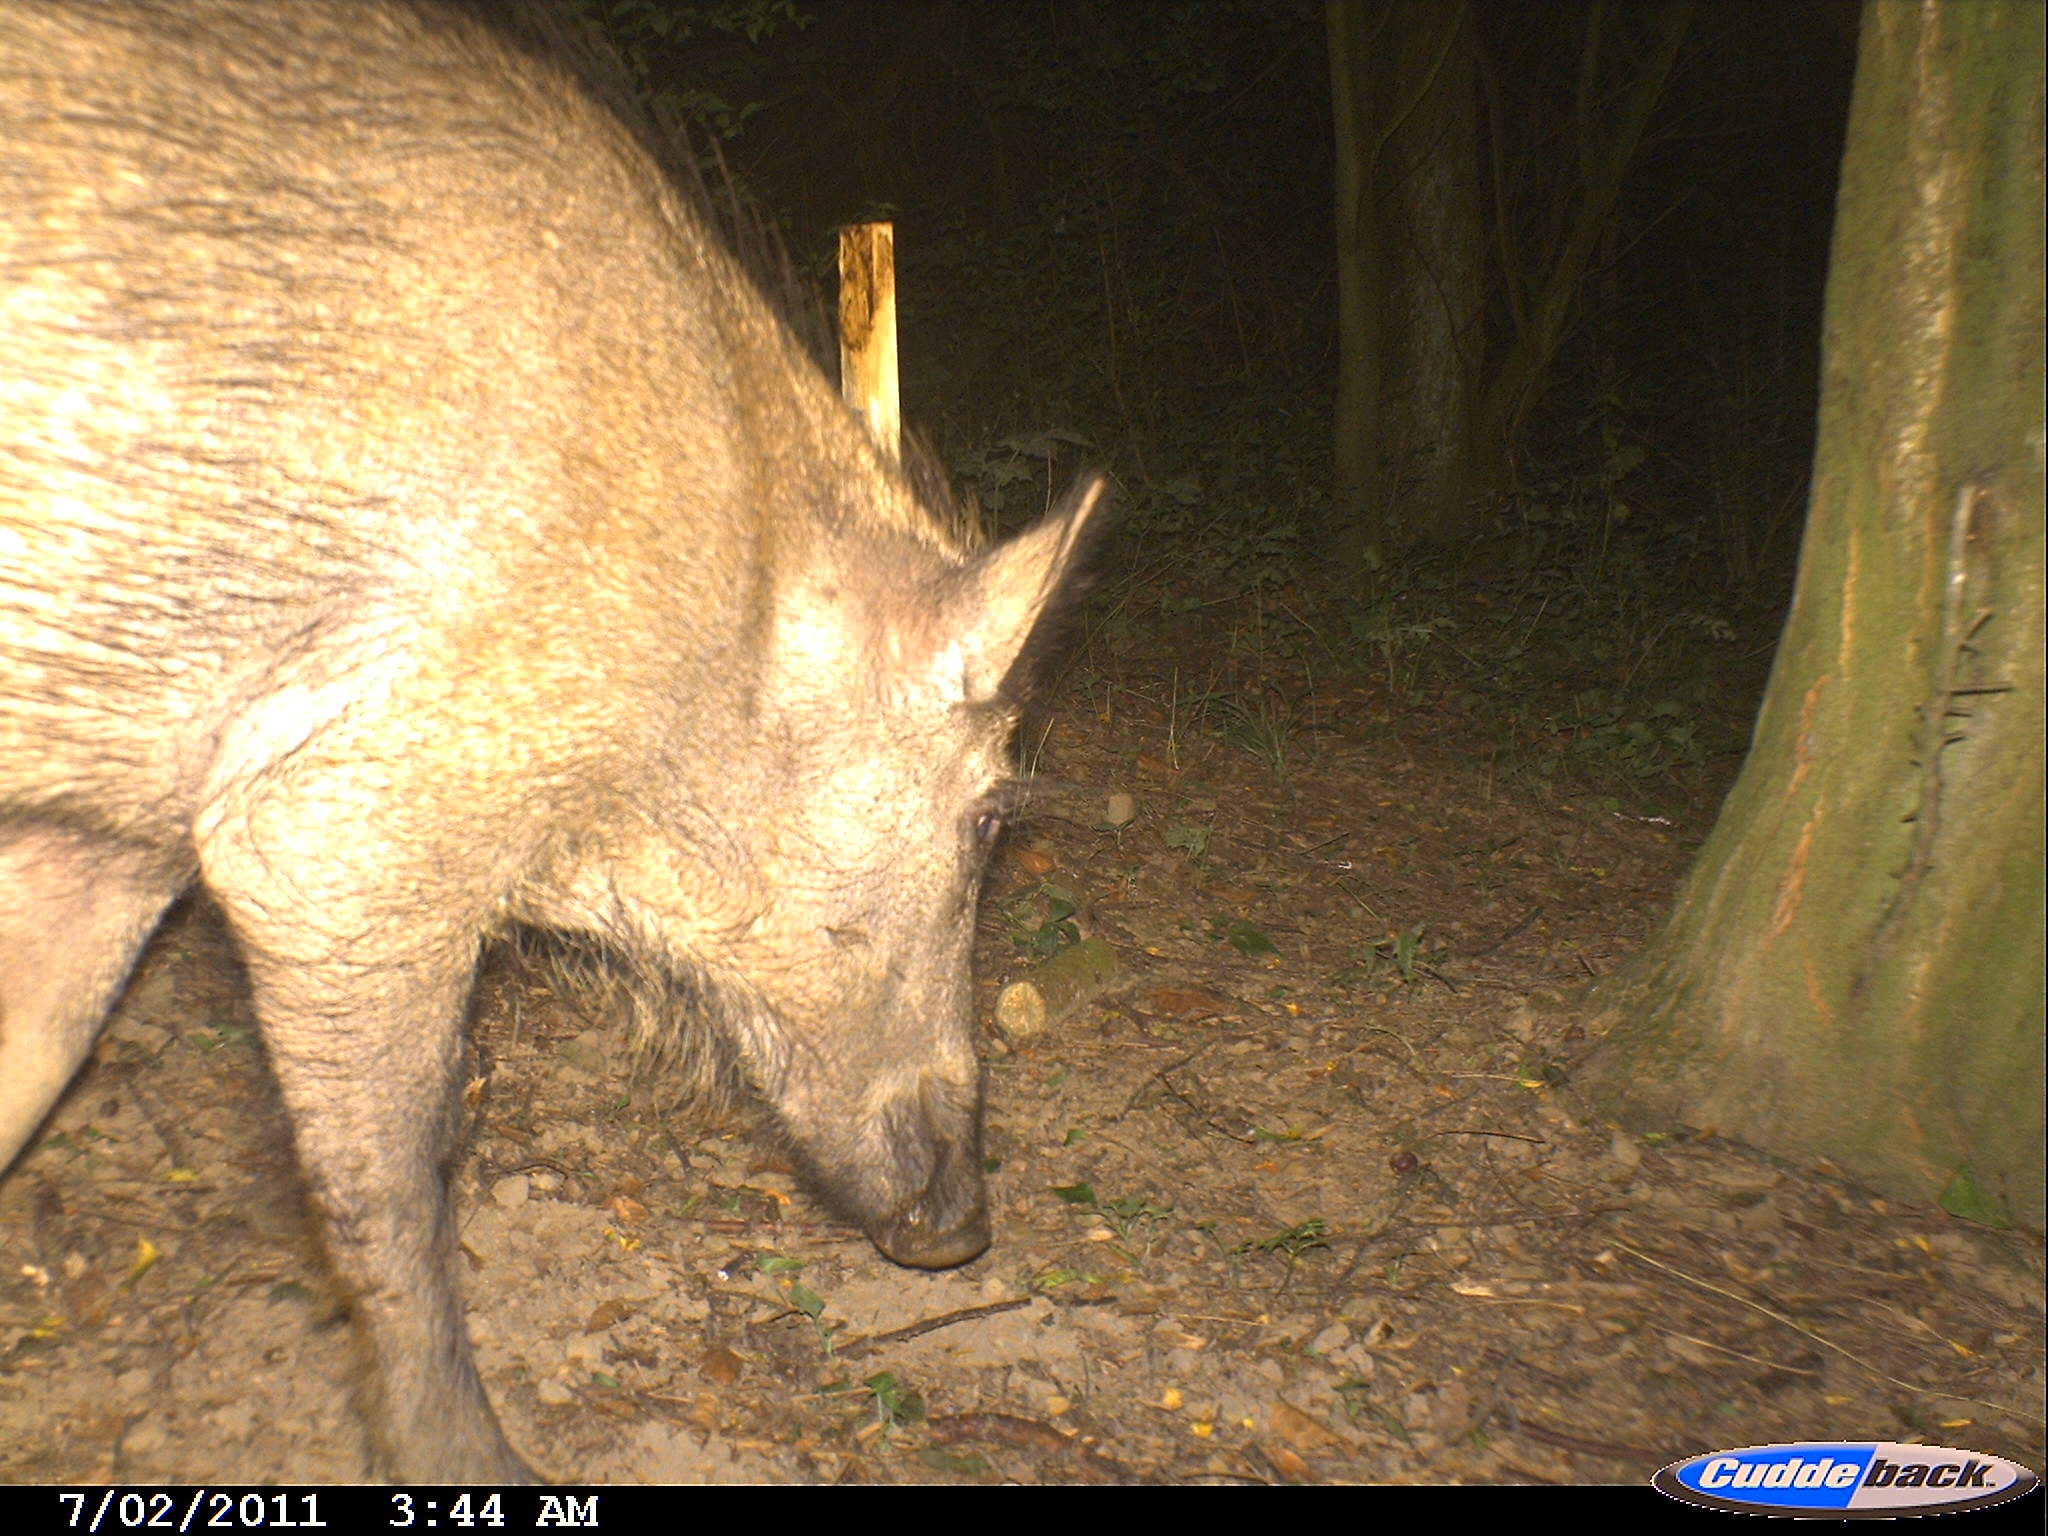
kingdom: Animalia
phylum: Chordata
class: Mammalia
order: Artiodactyla
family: Suidae
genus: Sus
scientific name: Sus scrofa
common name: Wild boar
